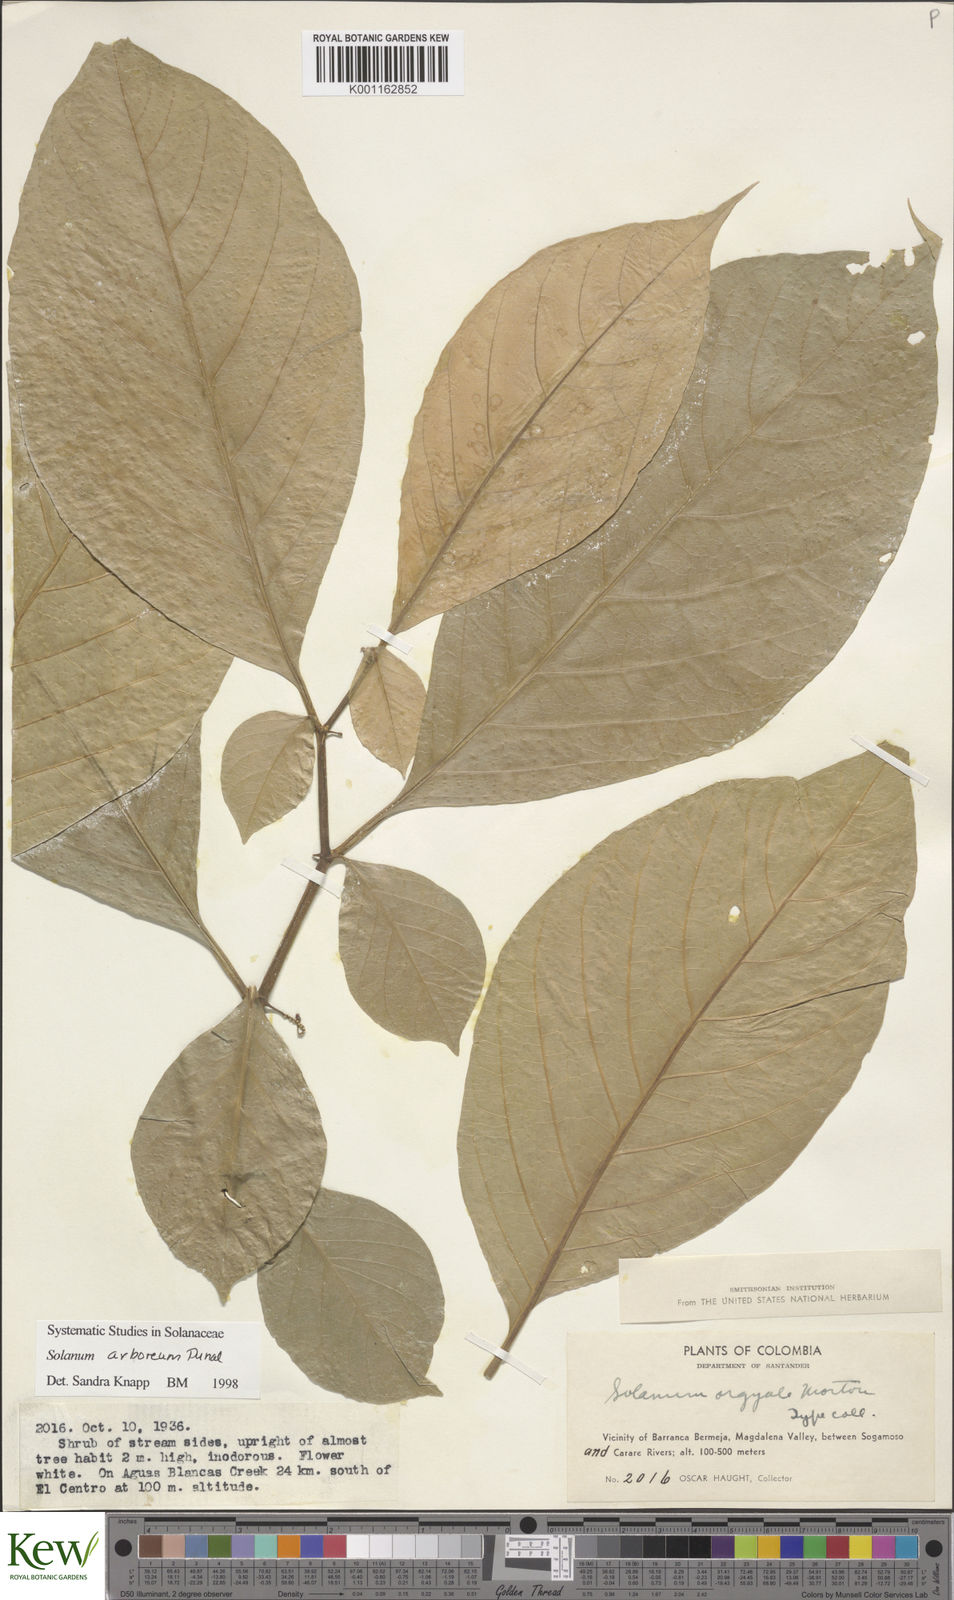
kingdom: Plantae
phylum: Tracheophyta
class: Magnoliopsida
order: Solanales
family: Solanaceae
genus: Solanum
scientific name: Solanum arboreum
